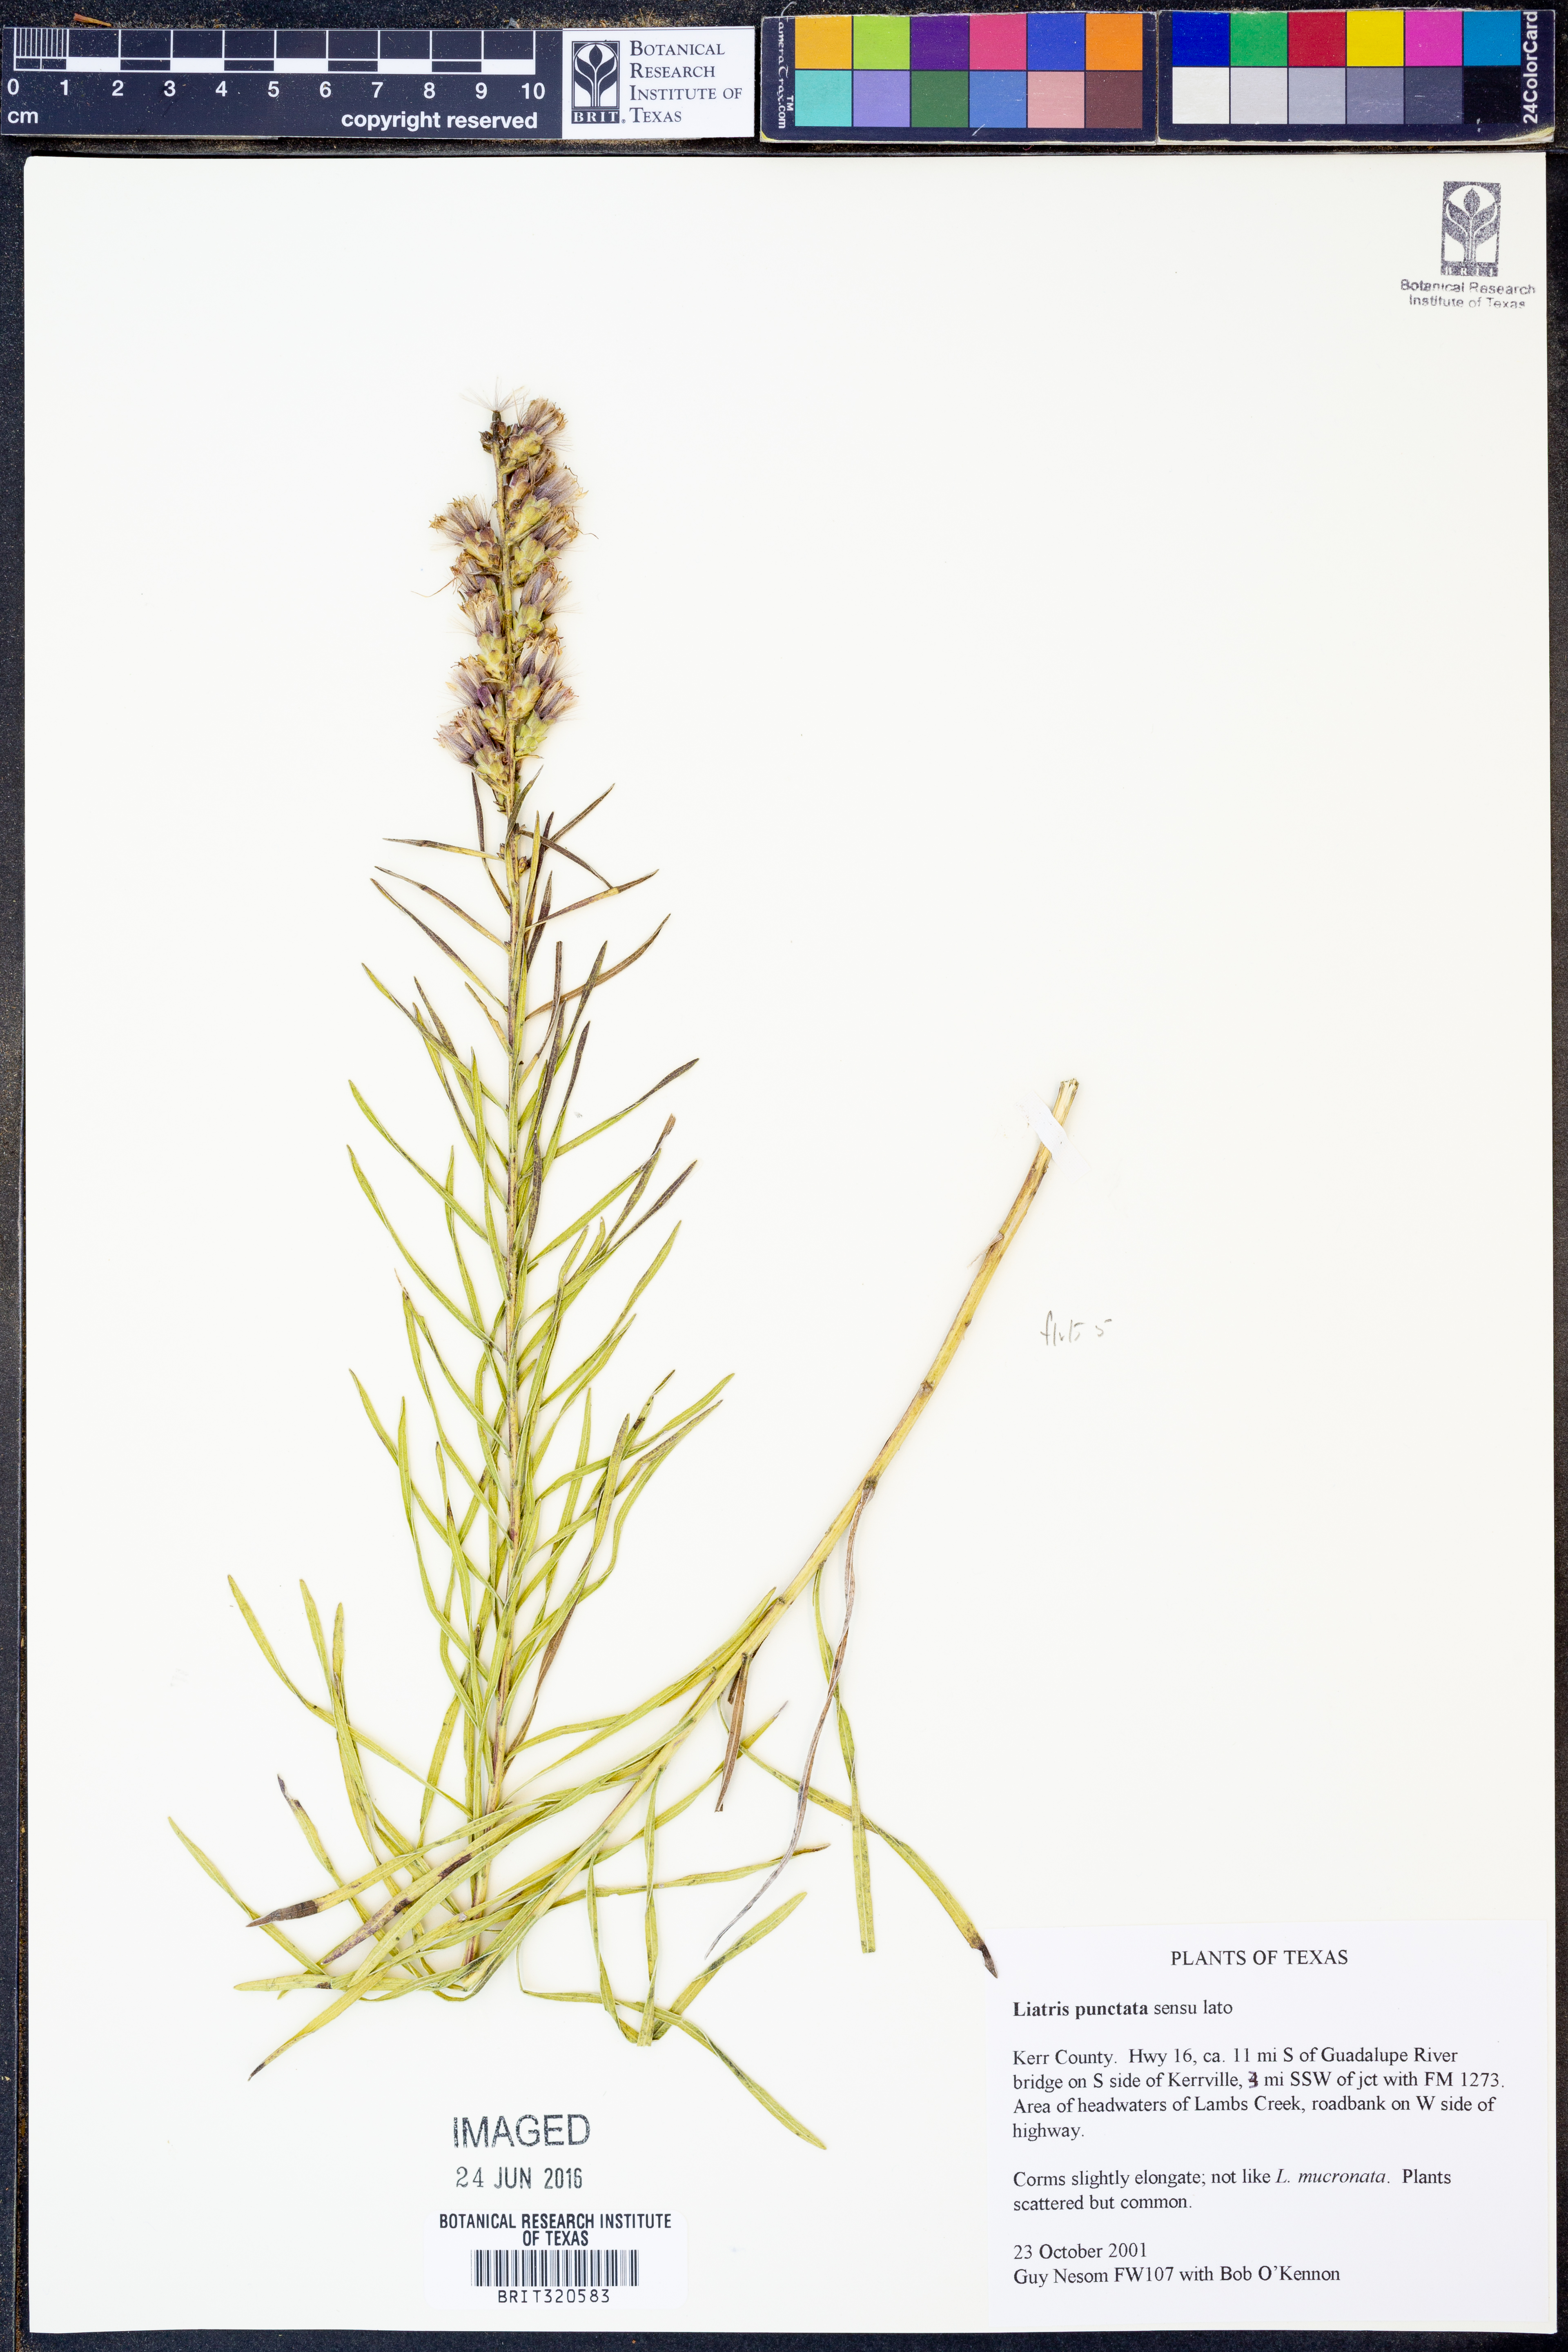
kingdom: Plantae
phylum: Tracheophyta
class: Magnoliopsida
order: Asterales
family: Asteraceae
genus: Liatris
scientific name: Liatris punctata
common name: Dotted gayfeather
